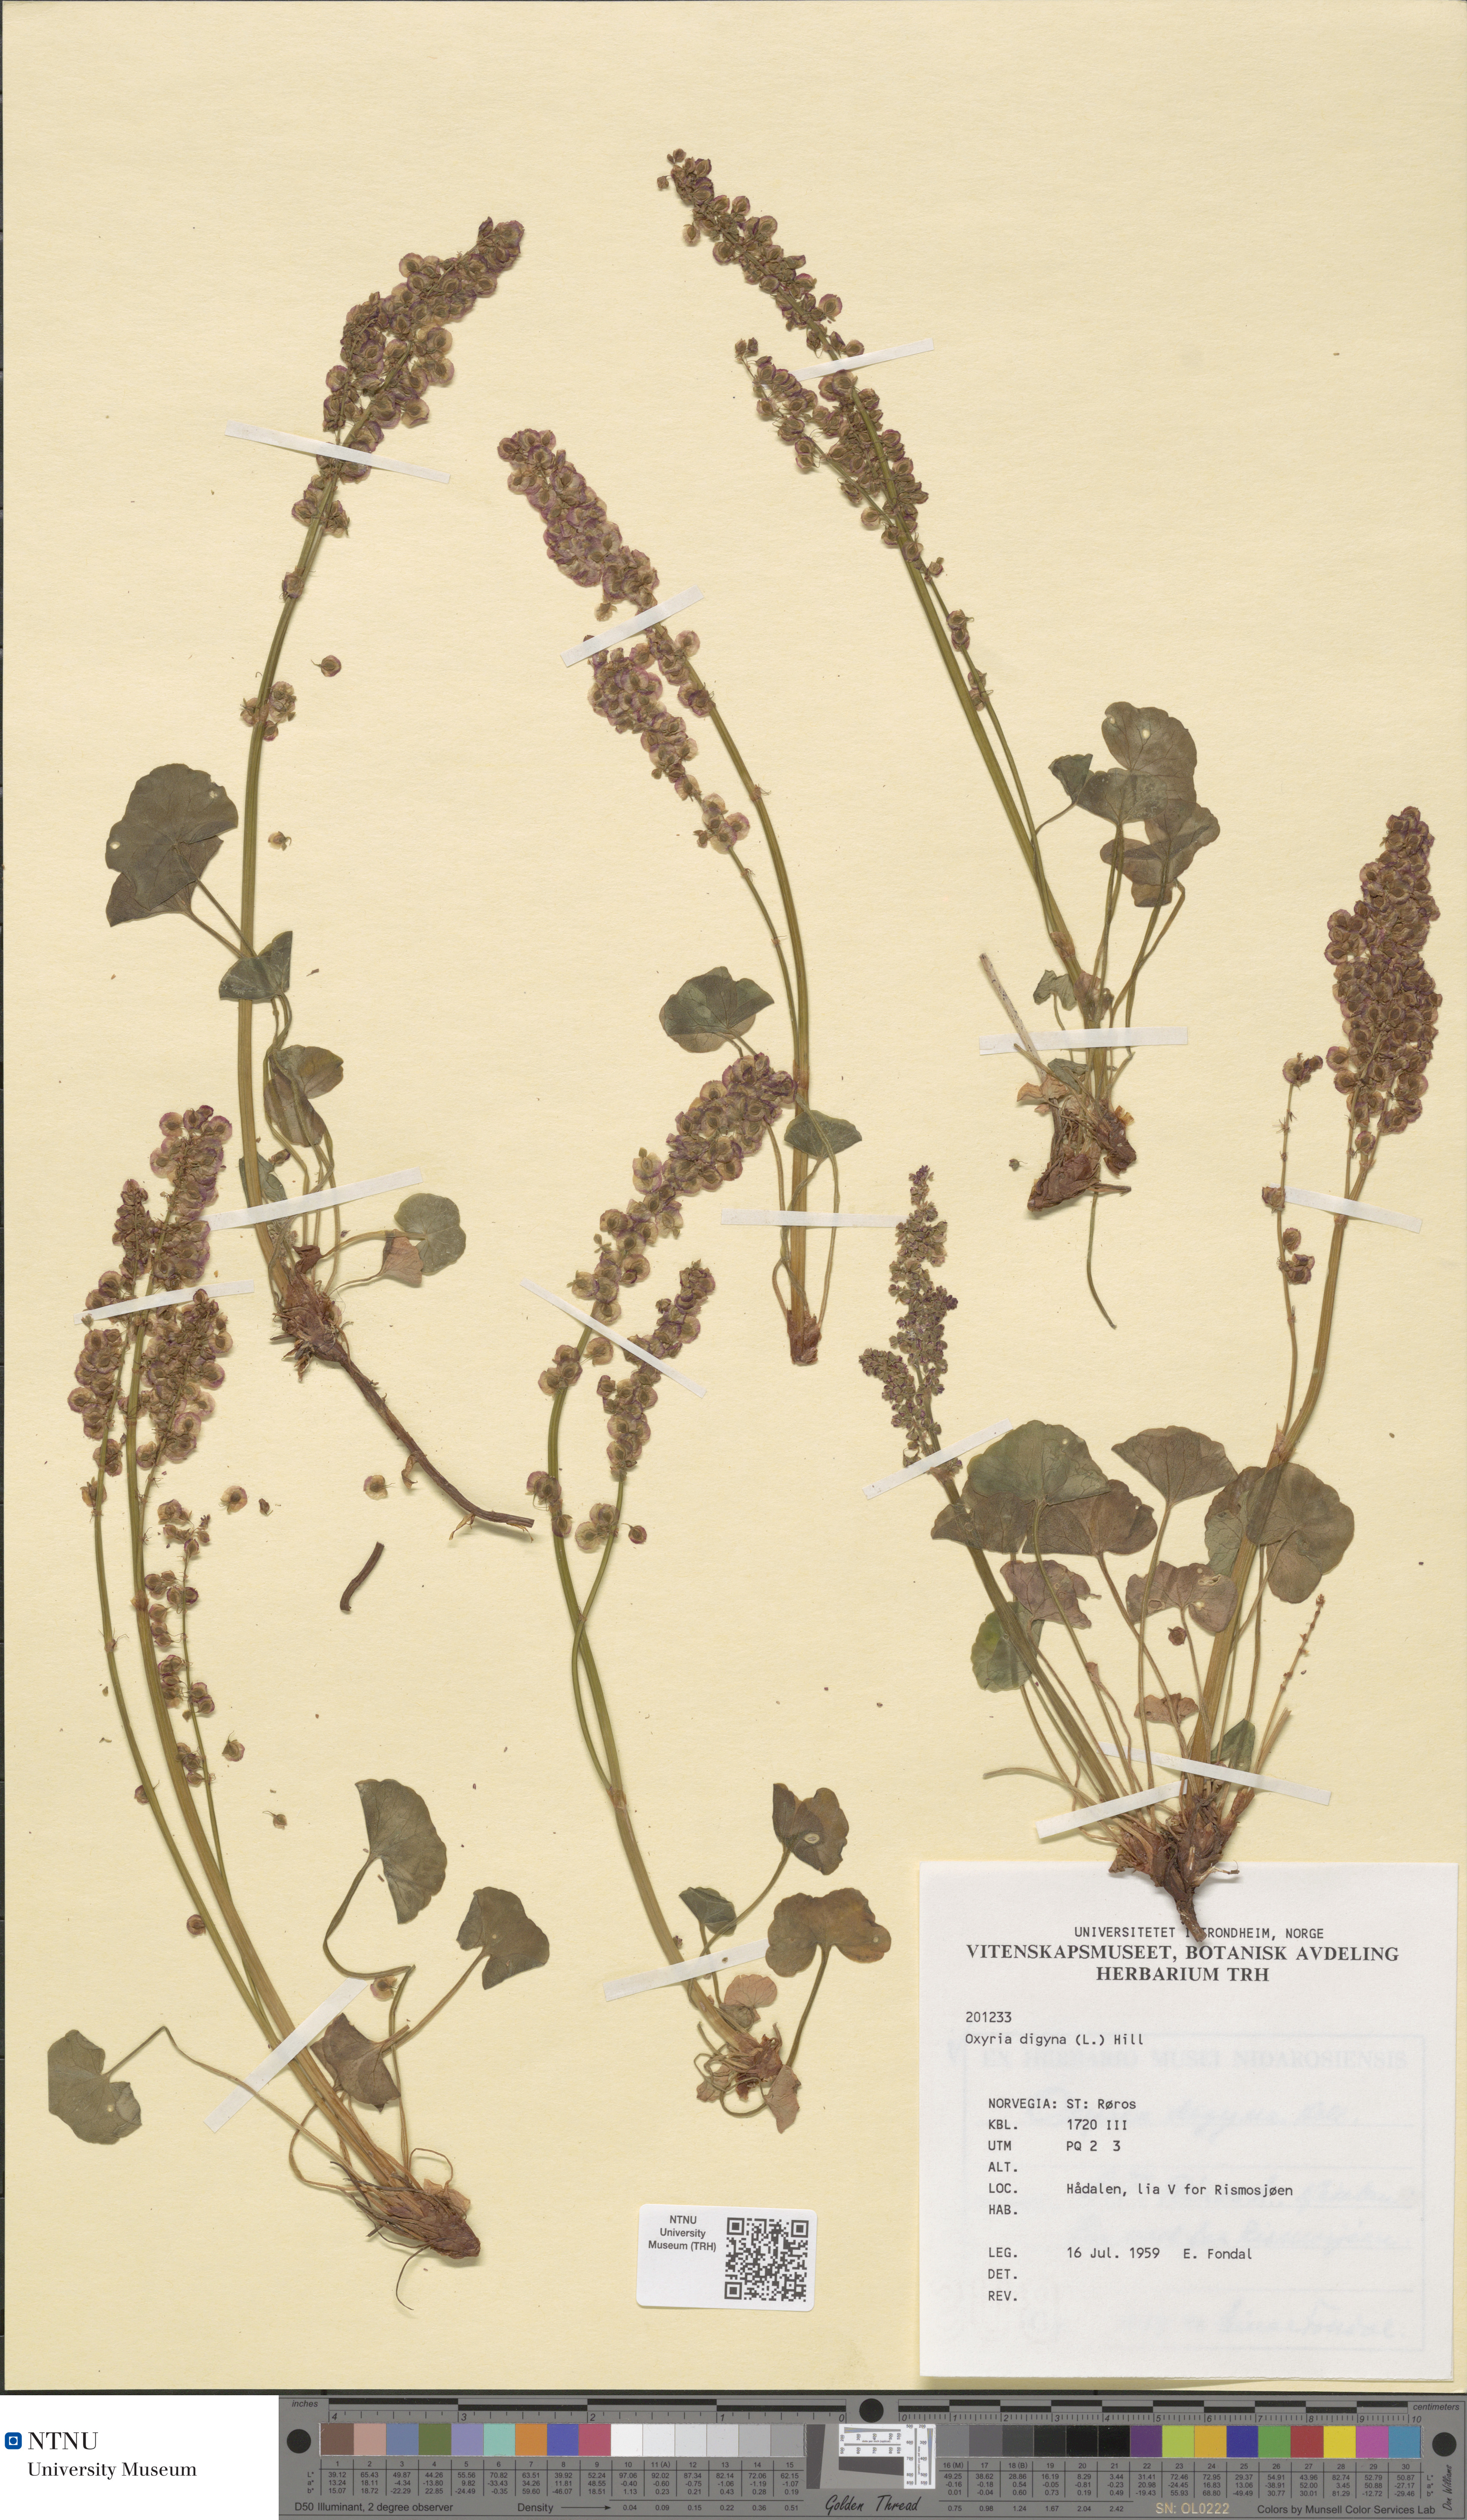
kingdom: Plantae
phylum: Tracheophyta
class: Magnoliopsida
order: Caryophyllales
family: Polygonaceae
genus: Oxyria
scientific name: Oxyria digyna
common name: Alpine mountain-sorrel
